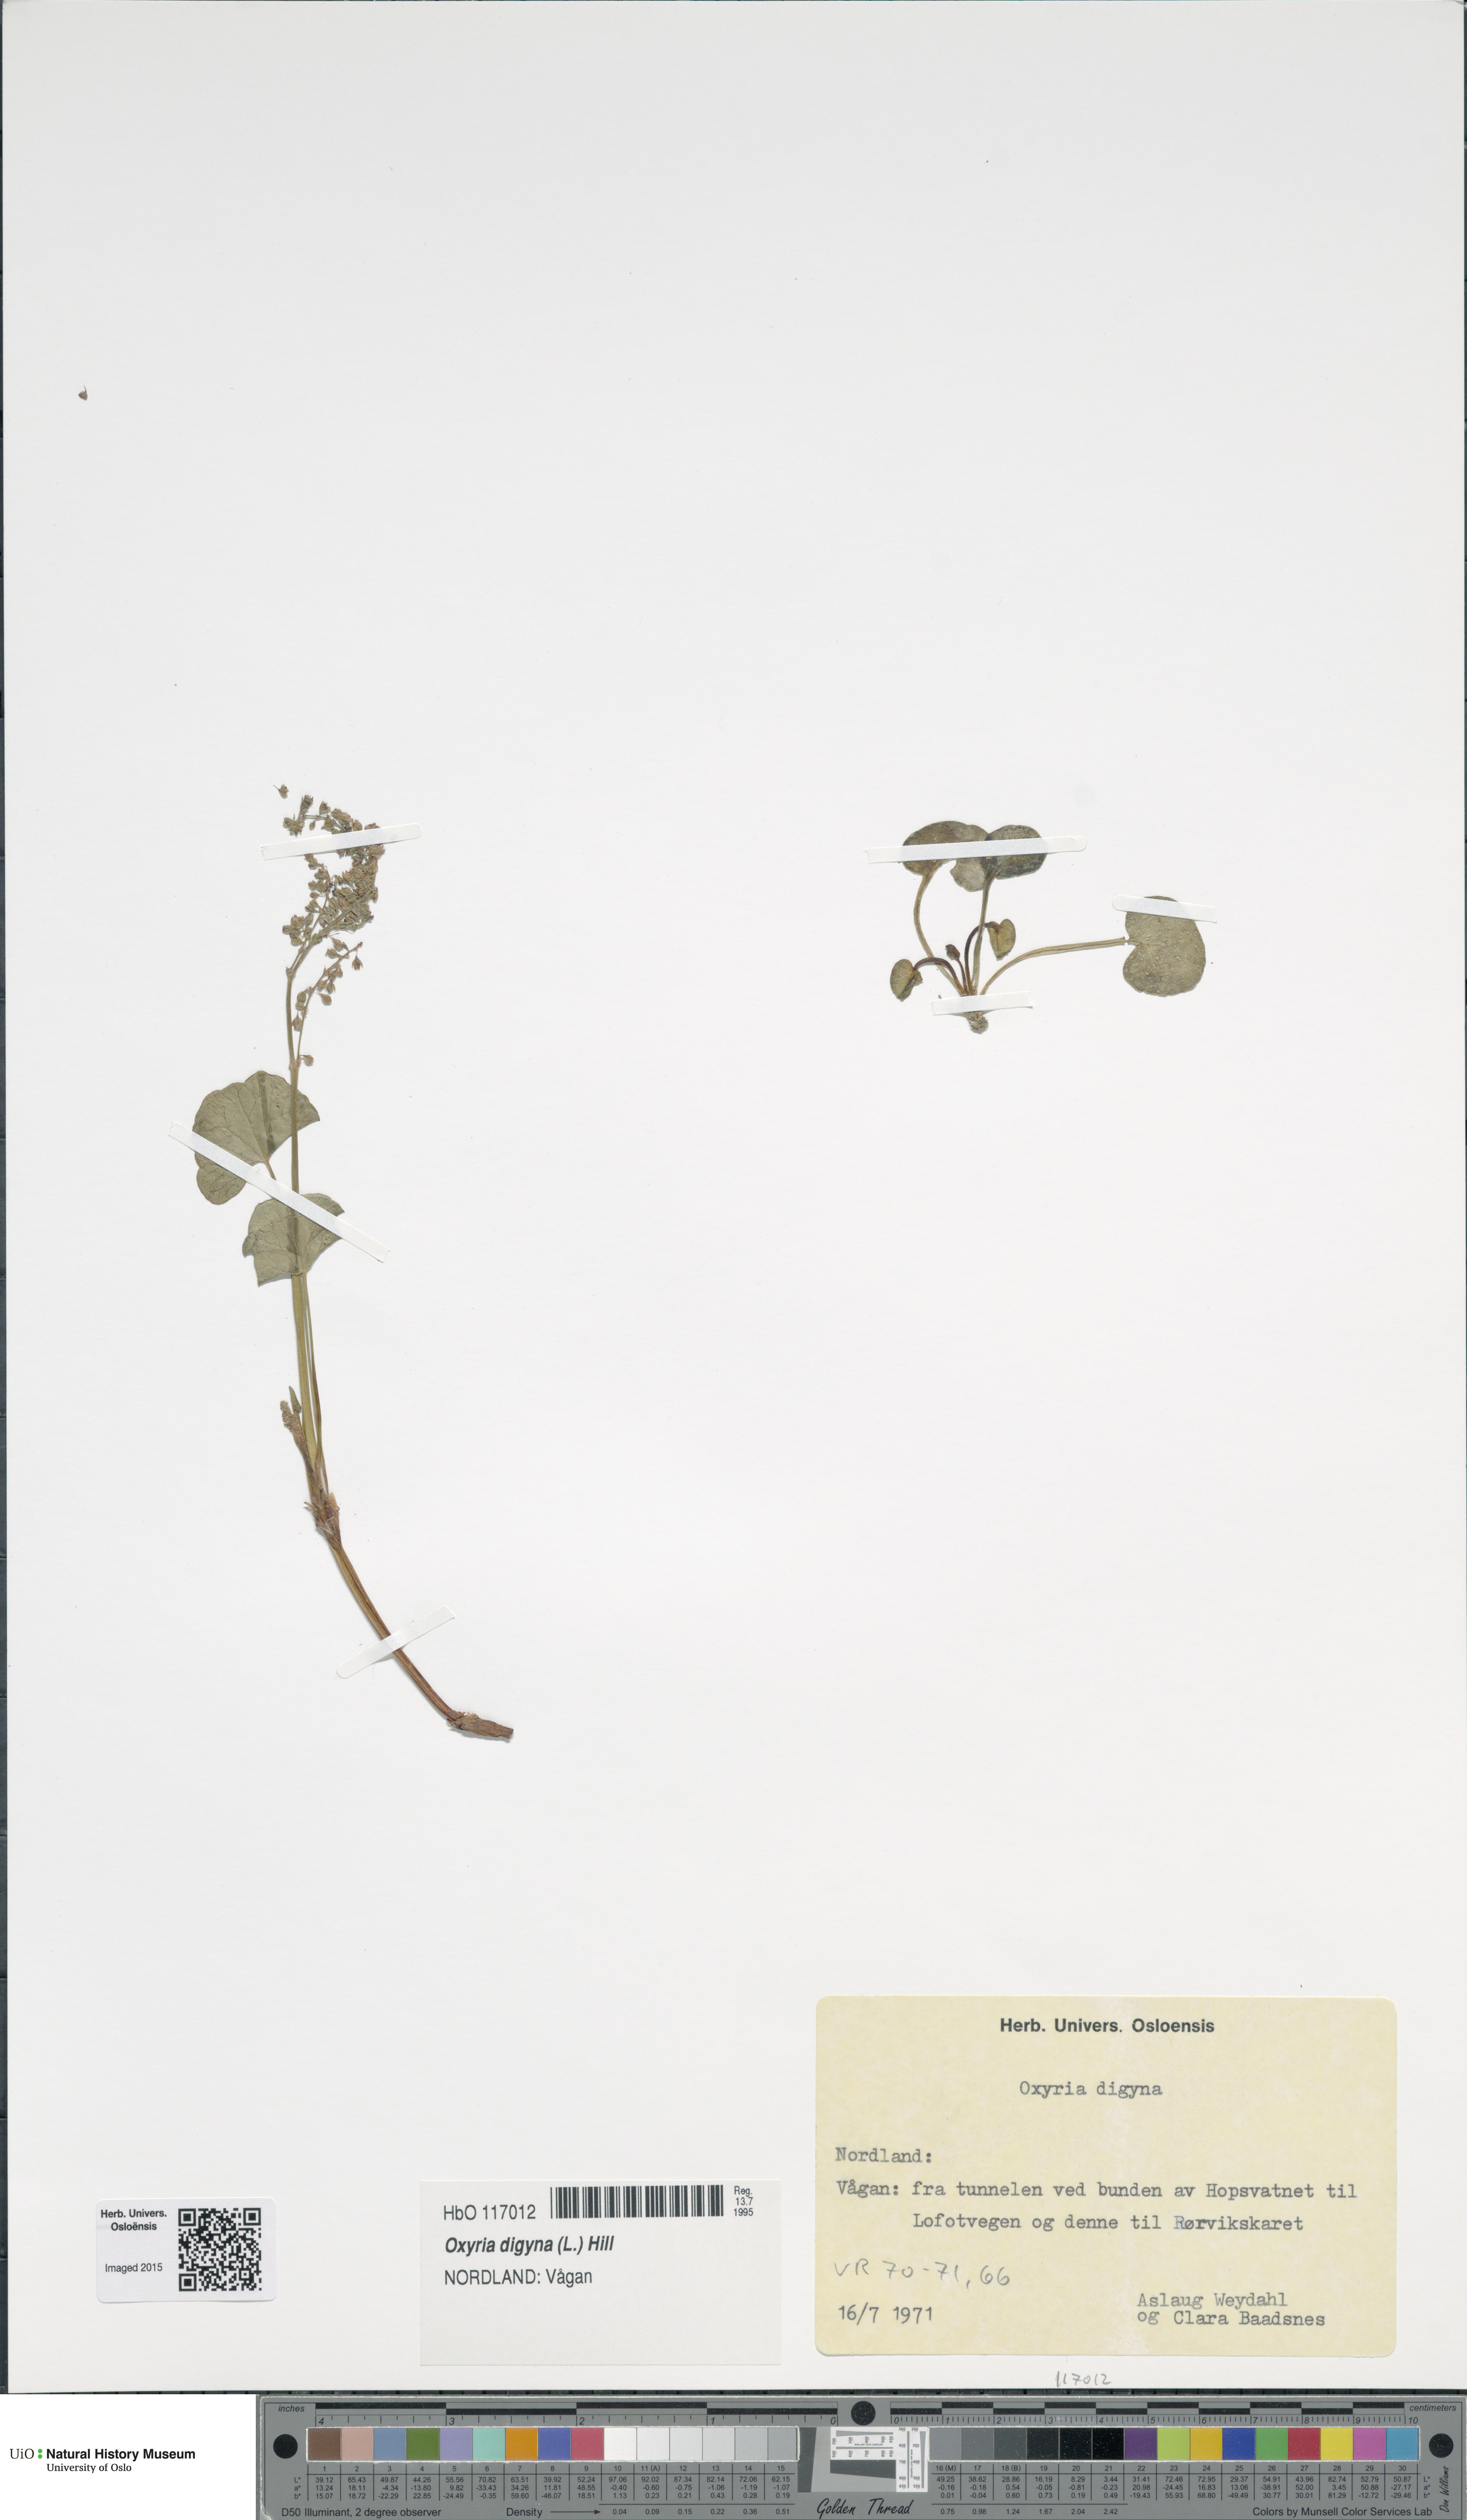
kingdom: Plantae
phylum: Tracheophyta
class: Magnoliopsida
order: Caryophyllales
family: Polygonaceae
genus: Oxyria
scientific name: Oxyria digyna
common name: Alpine mountain-sorrel
